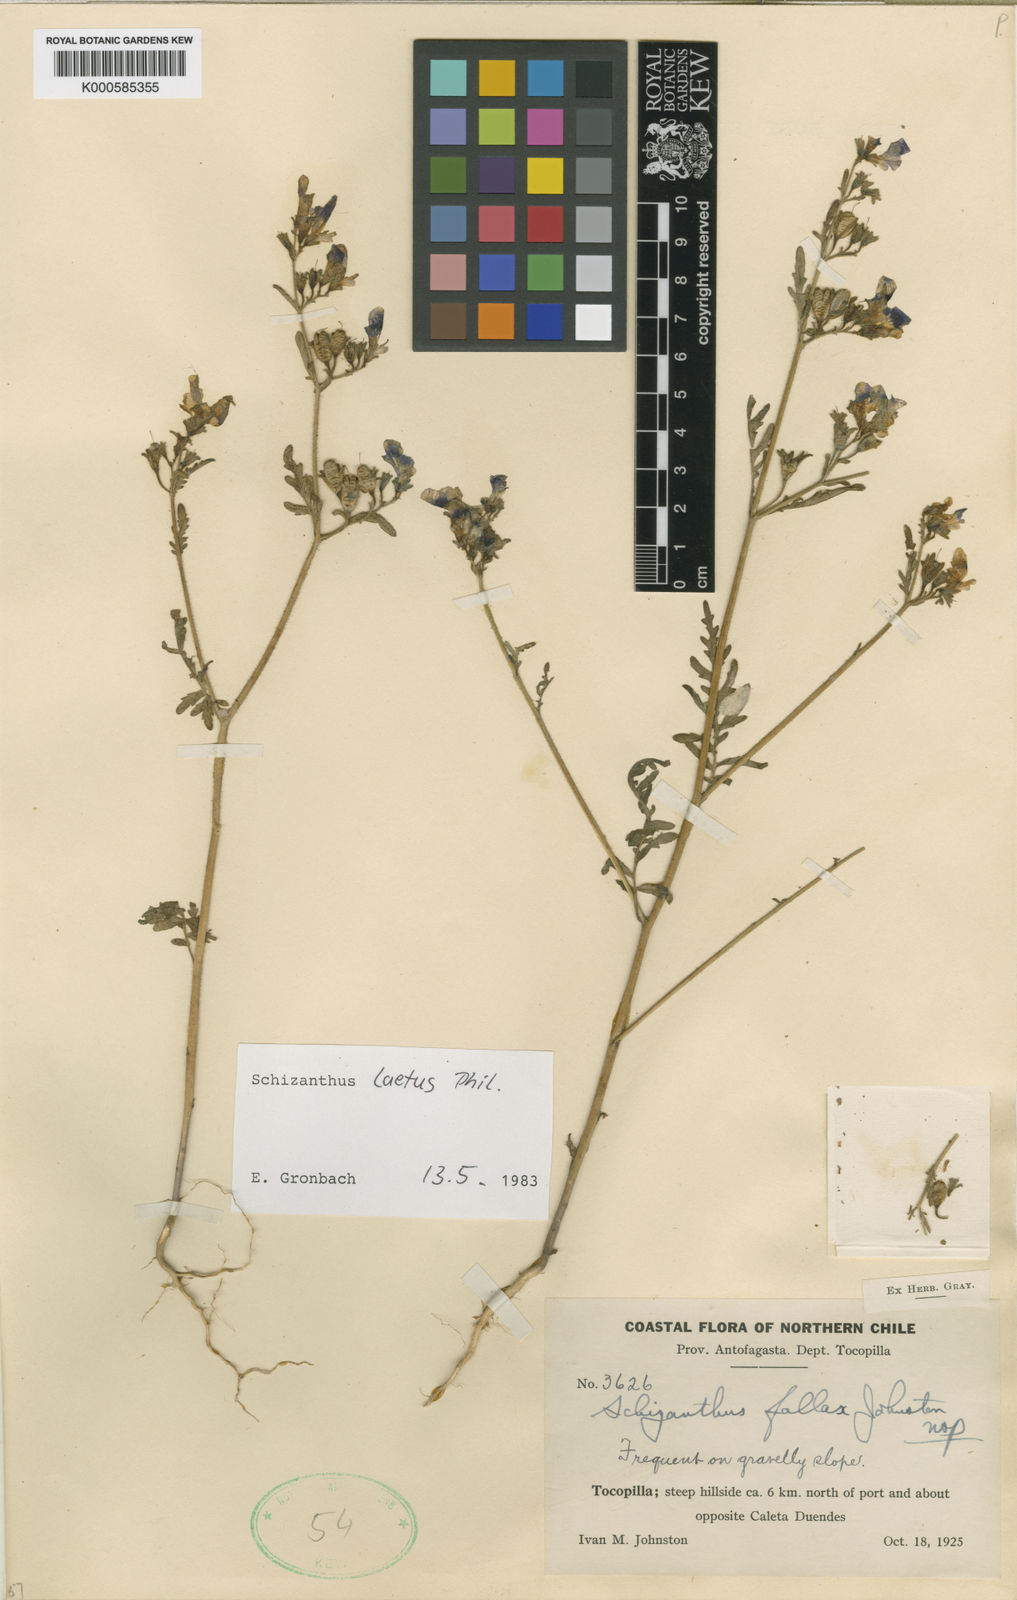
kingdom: Plantae
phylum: Tracheophyta
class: Magnoliopsida
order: Solanales
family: Solanaceae
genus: Schizanthus
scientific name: Schizanthus laetus
